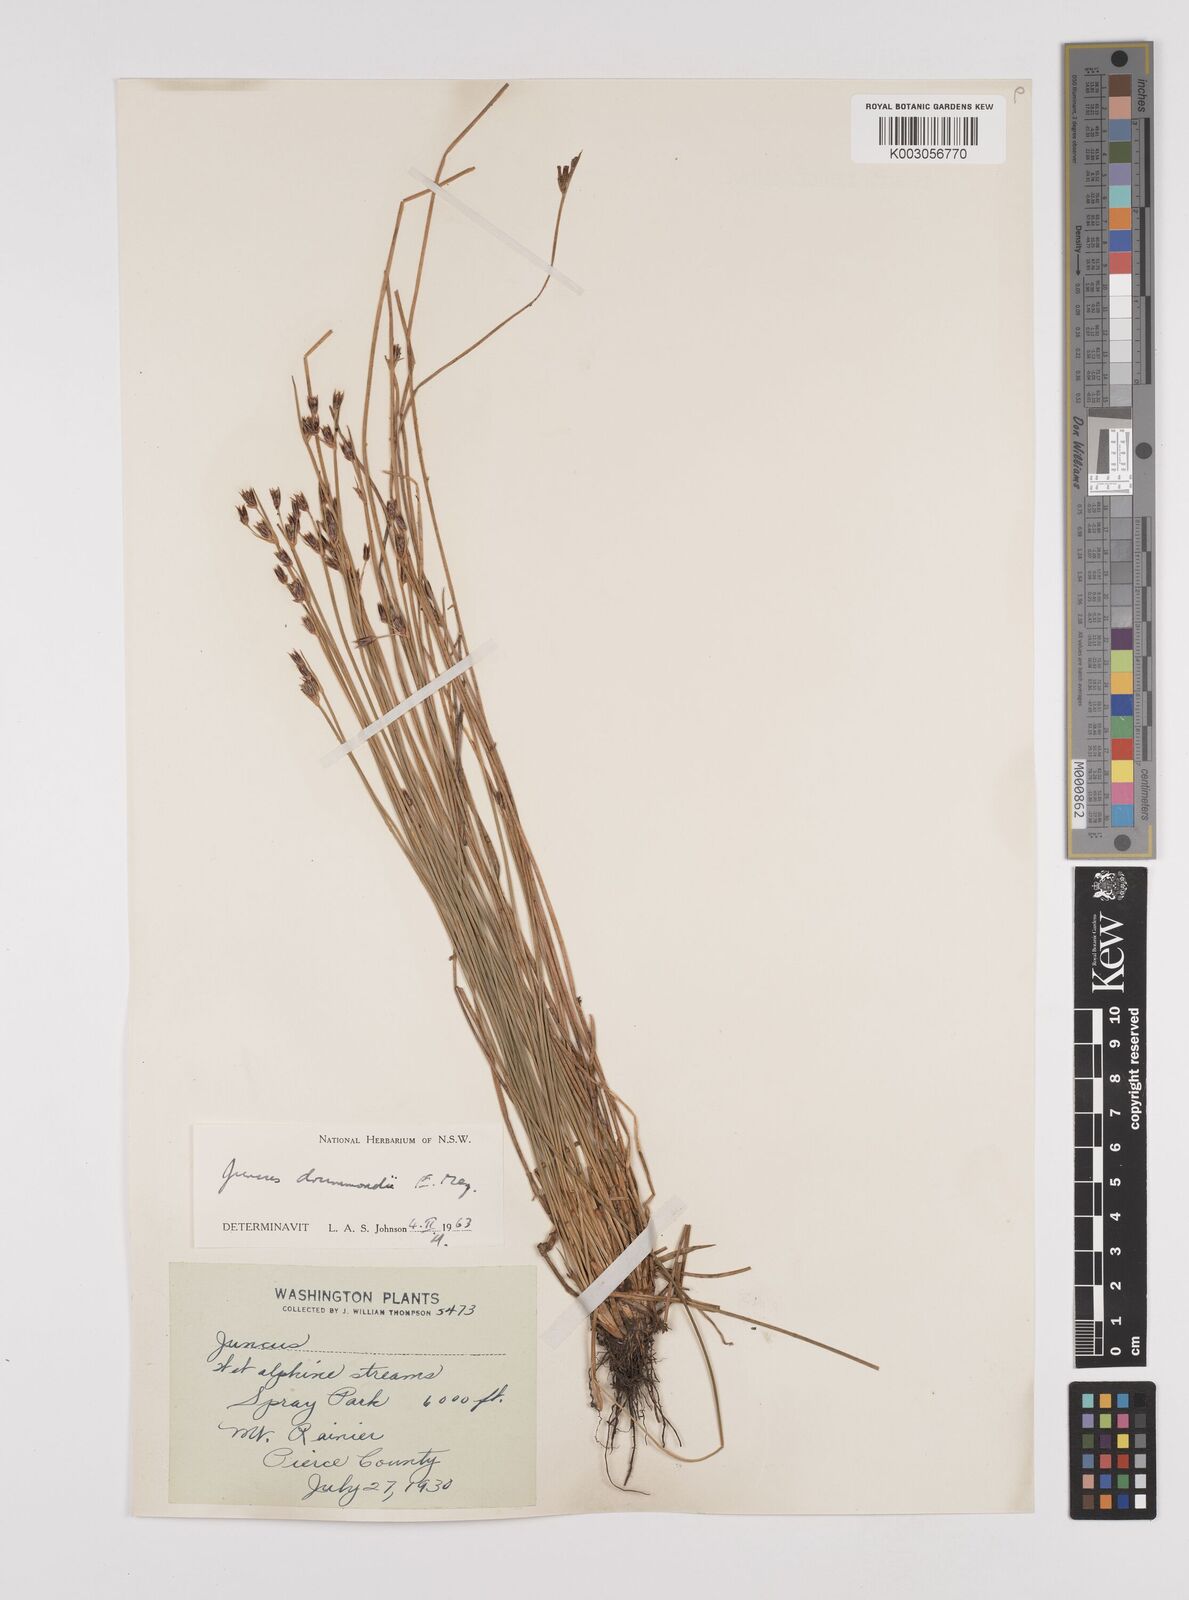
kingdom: Plantae
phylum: Tracheophyta
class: Liliopsida
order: Poales
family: Juncaceae
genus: Juncus
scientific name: Juncus drummondii
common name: Drummond's rush
